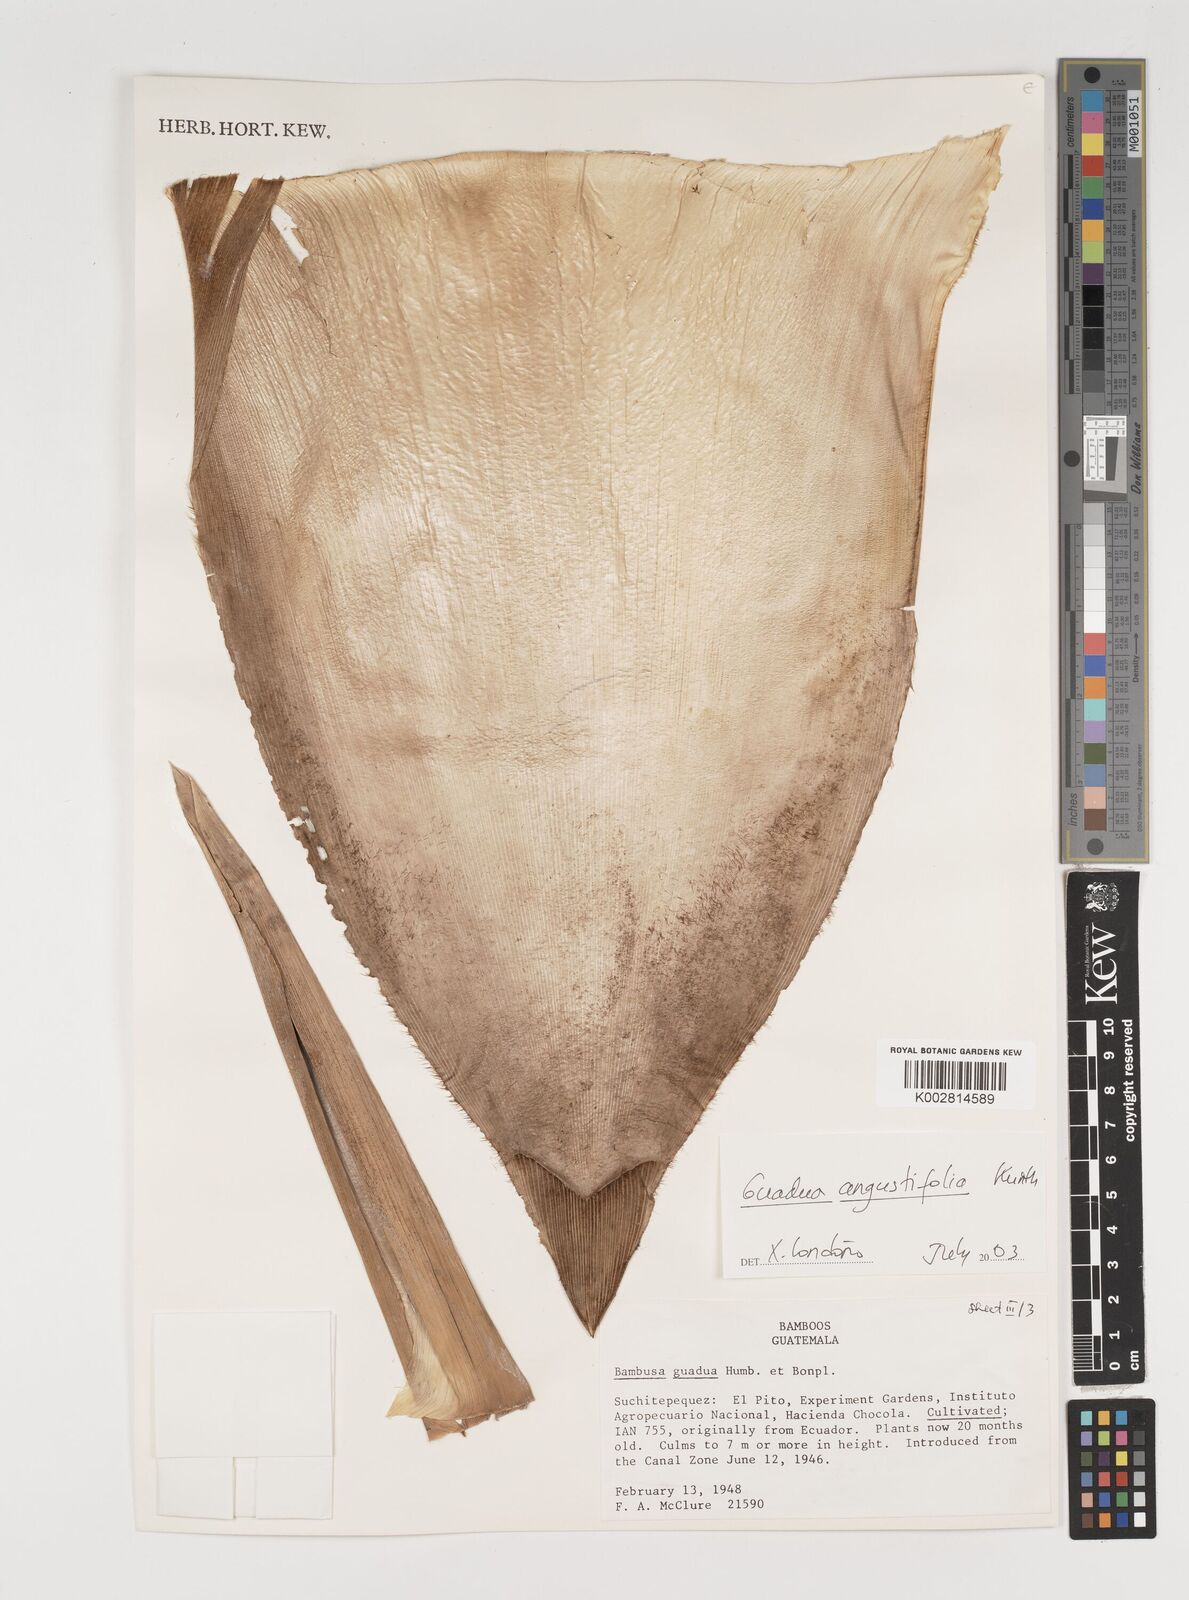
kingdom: Plantae
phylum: Tracheophyta
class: Liliopsida
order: Poales
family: Poaceae
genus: Guadua
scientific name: Guadua
